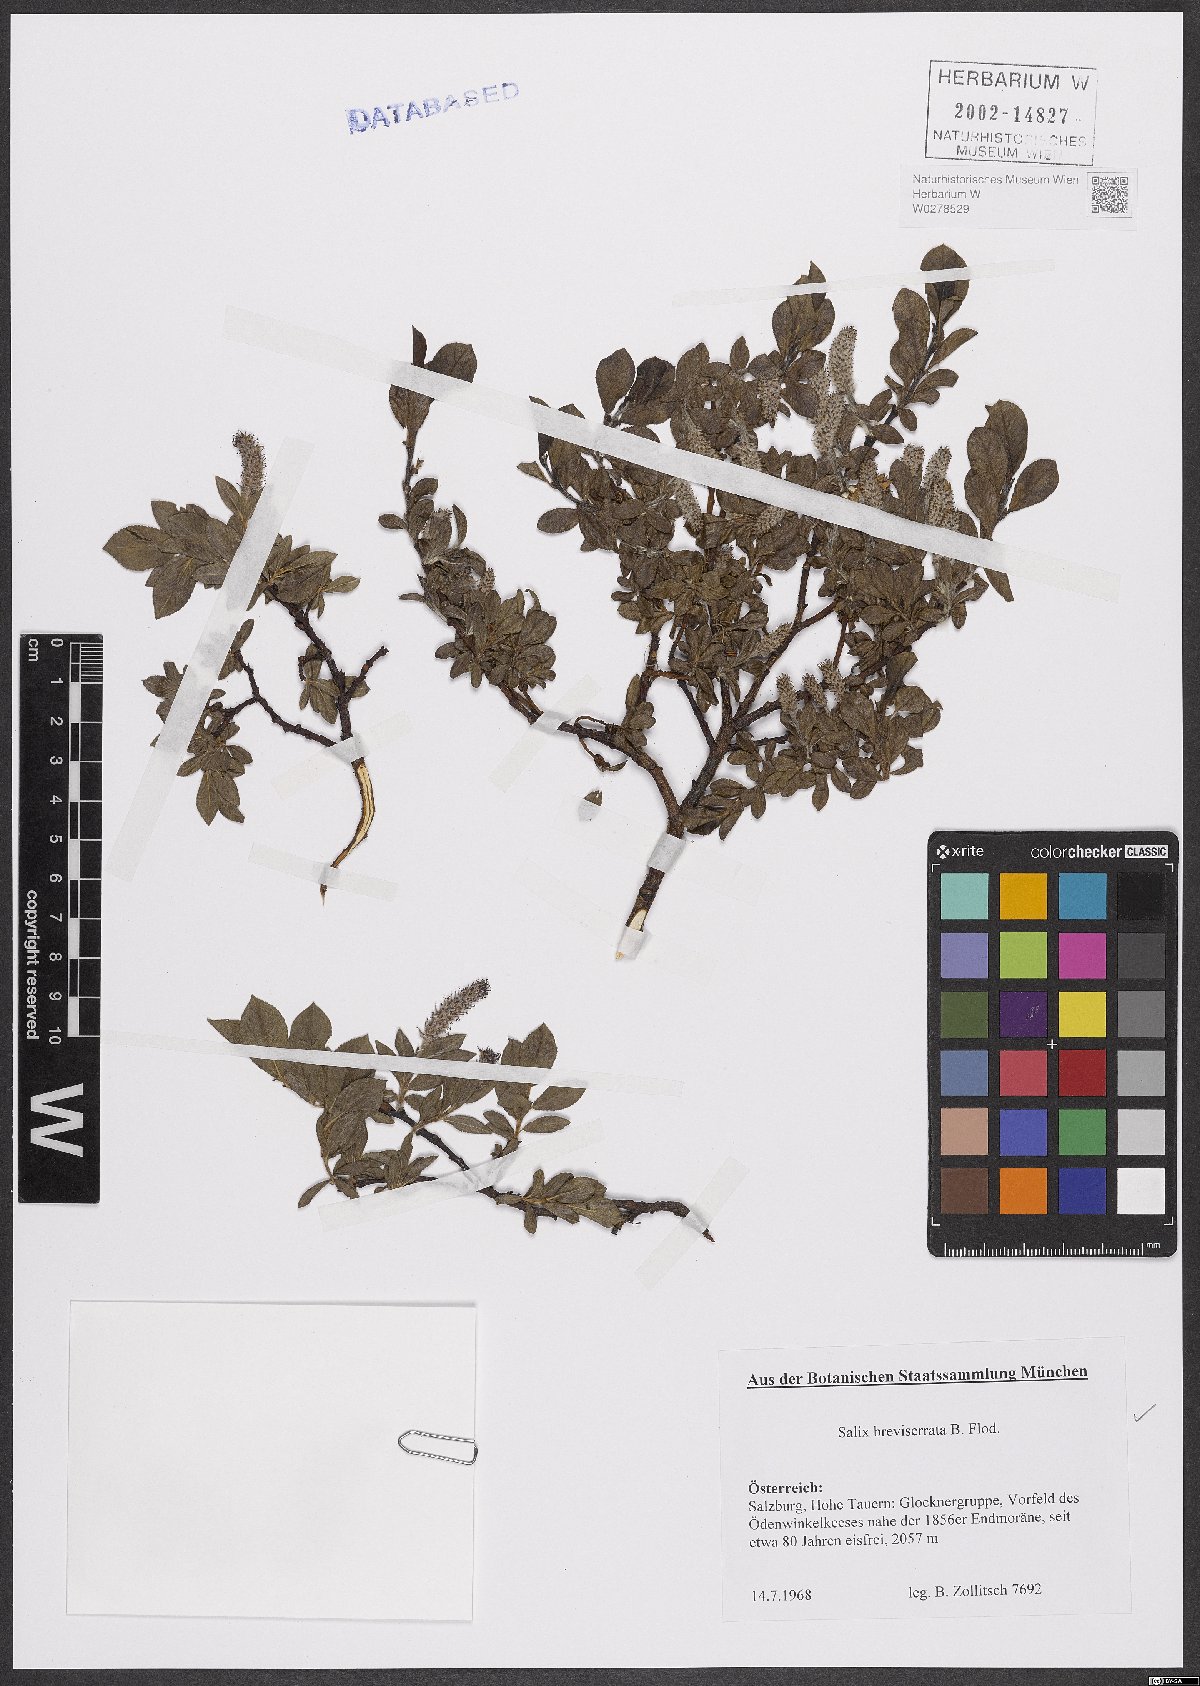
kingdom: Plantae
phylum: Tracheophyta
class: Magnoliopsida
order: Malpighiales
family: Salicaceae
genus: Salix
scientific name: Salix breviserrata
